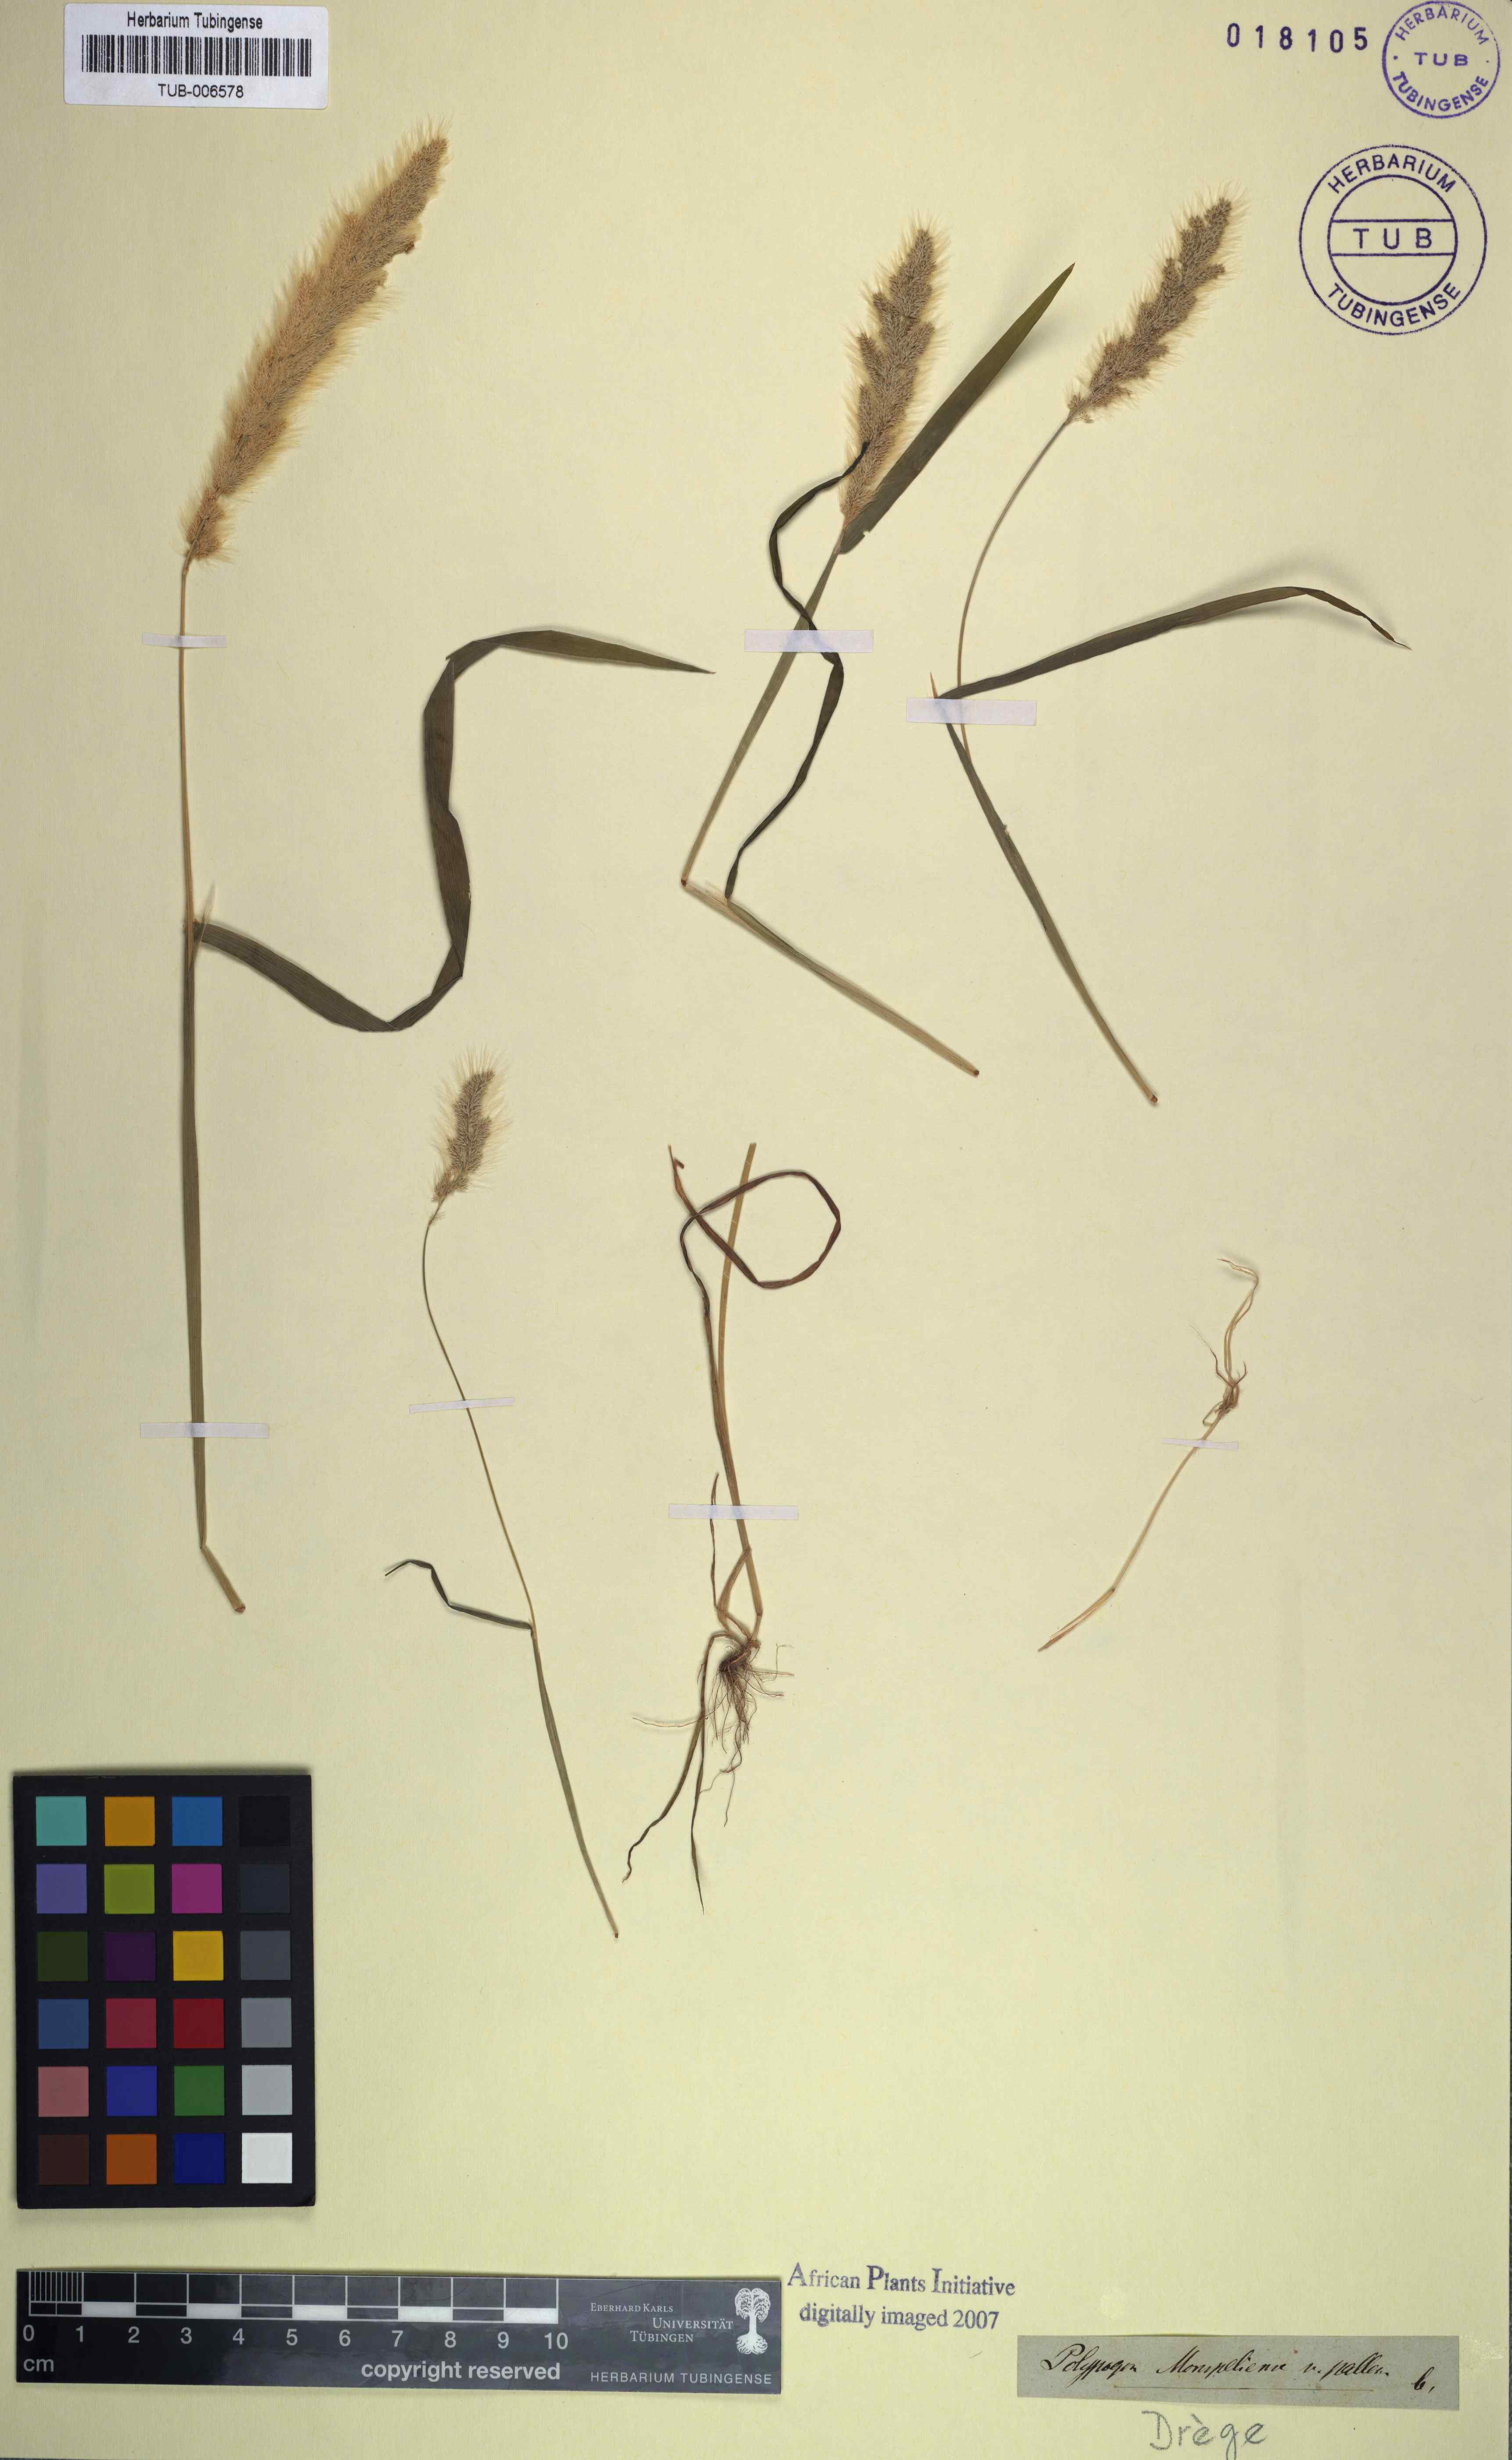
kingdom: Plantae
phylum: Tracheophyta
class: Liliopsida
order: Poales
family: Poaceae
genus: Polypogon
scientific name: Polypogon monspeliensis
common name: Annual rabbitsfoot grass
